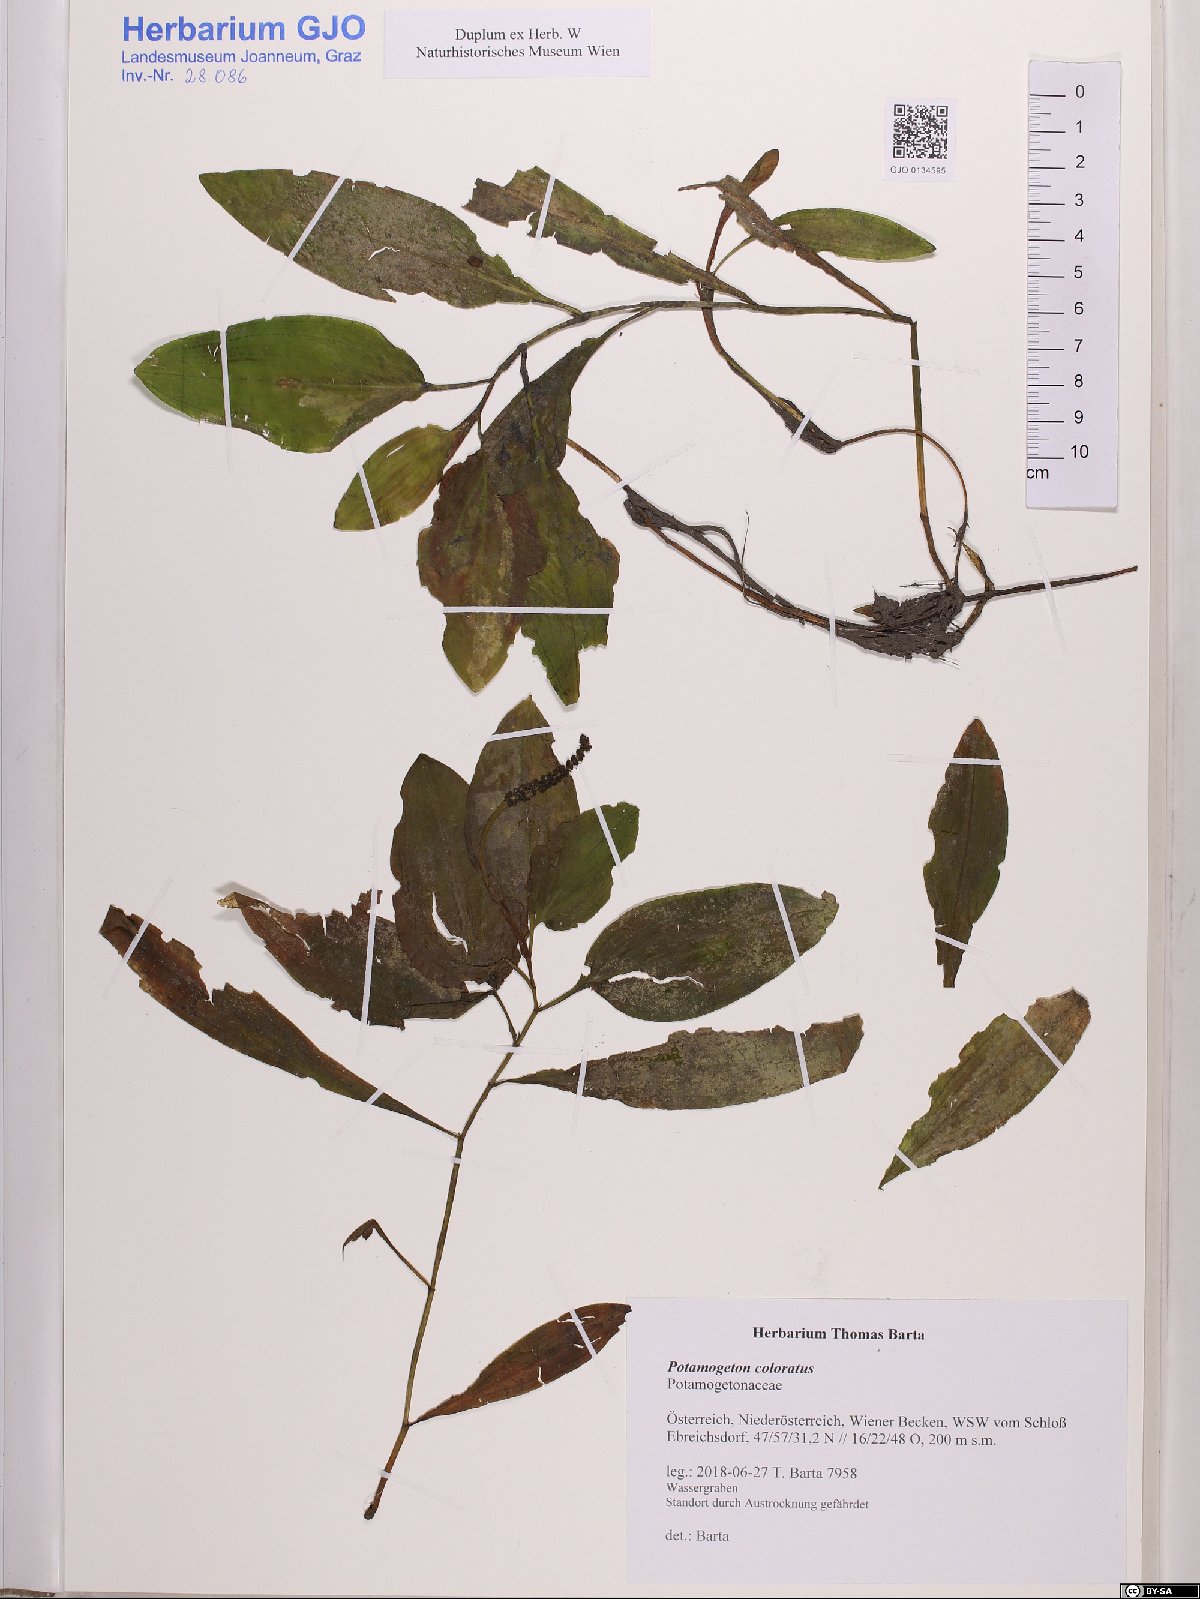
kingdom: Plantae
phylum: Tracheophyta
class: Liliopsida
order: Alismatales
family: Potamogetonaceae
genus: Potamogeton
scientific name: Potamogeton coloratus
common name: Fen pondweed
